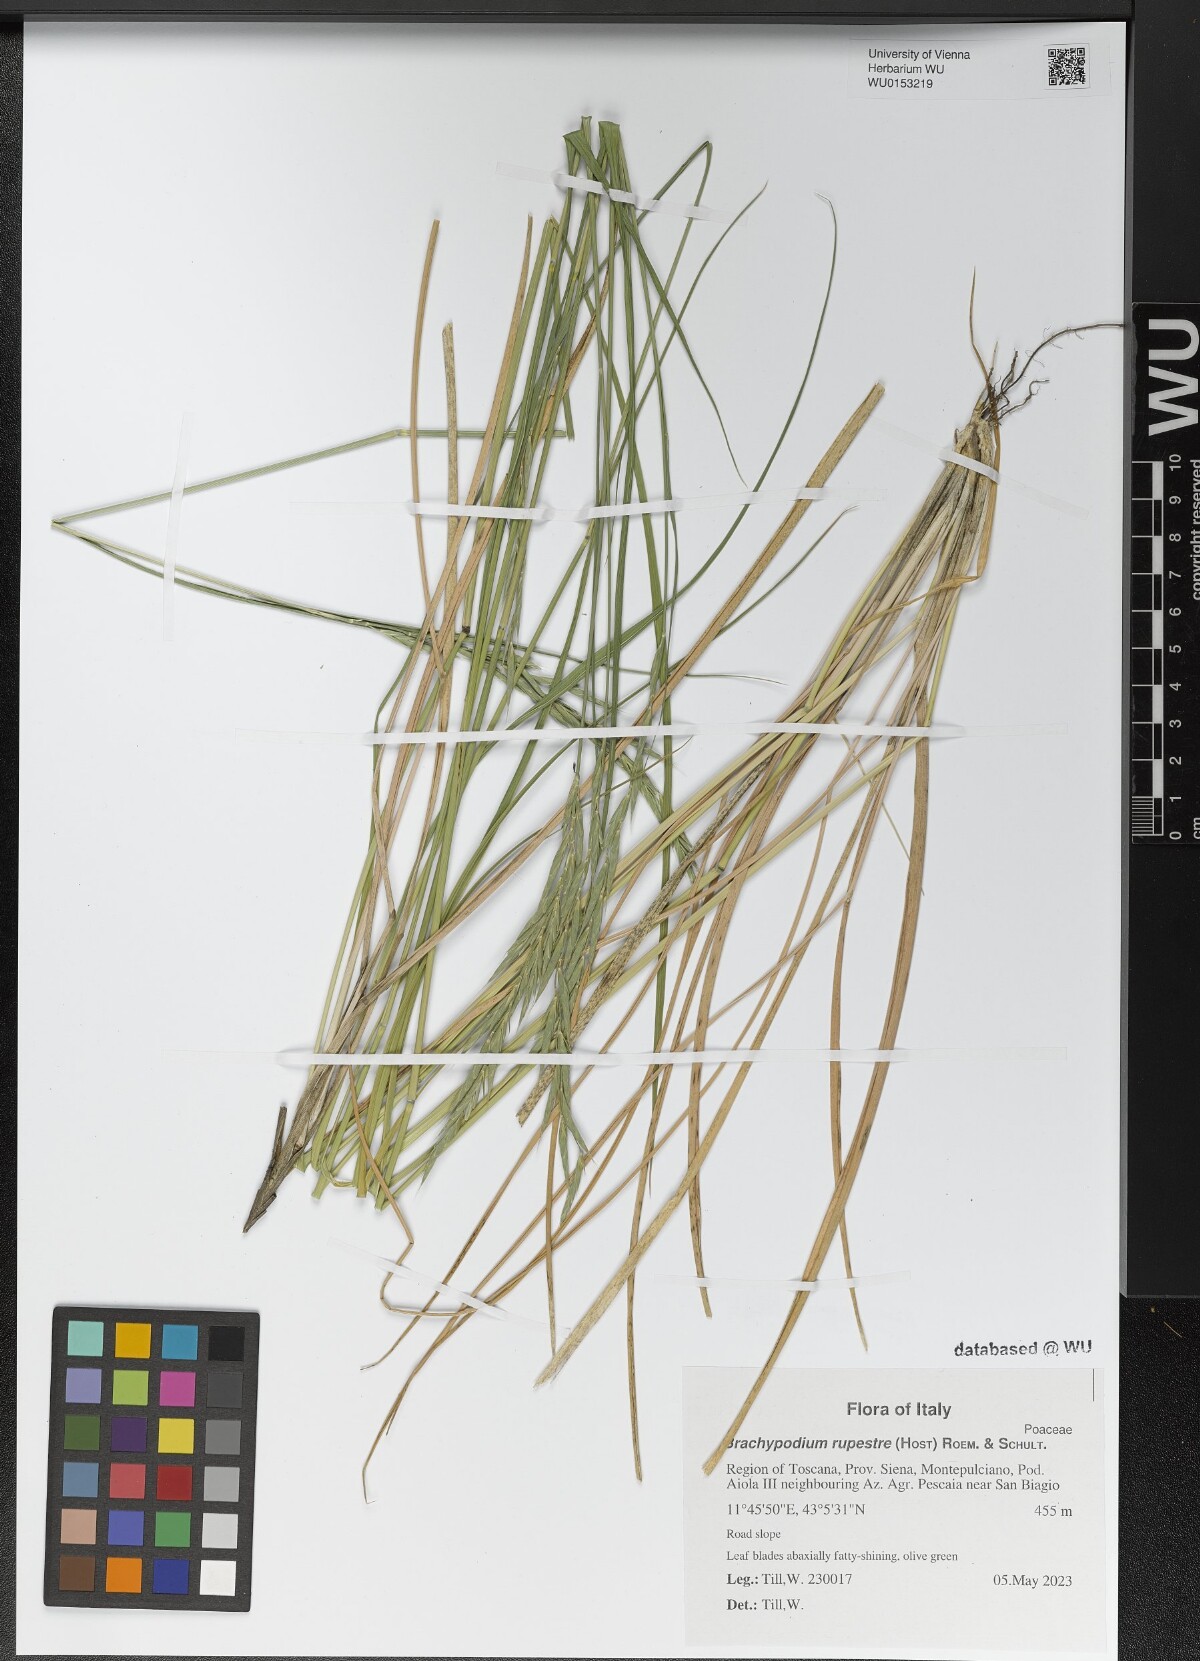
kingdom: Plantae
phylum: Tracheophyta
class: Liliopsida
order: Poales
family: Poaceae
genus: Brachypodium
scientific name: Brachypodium pinnatum
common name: Tor grass
